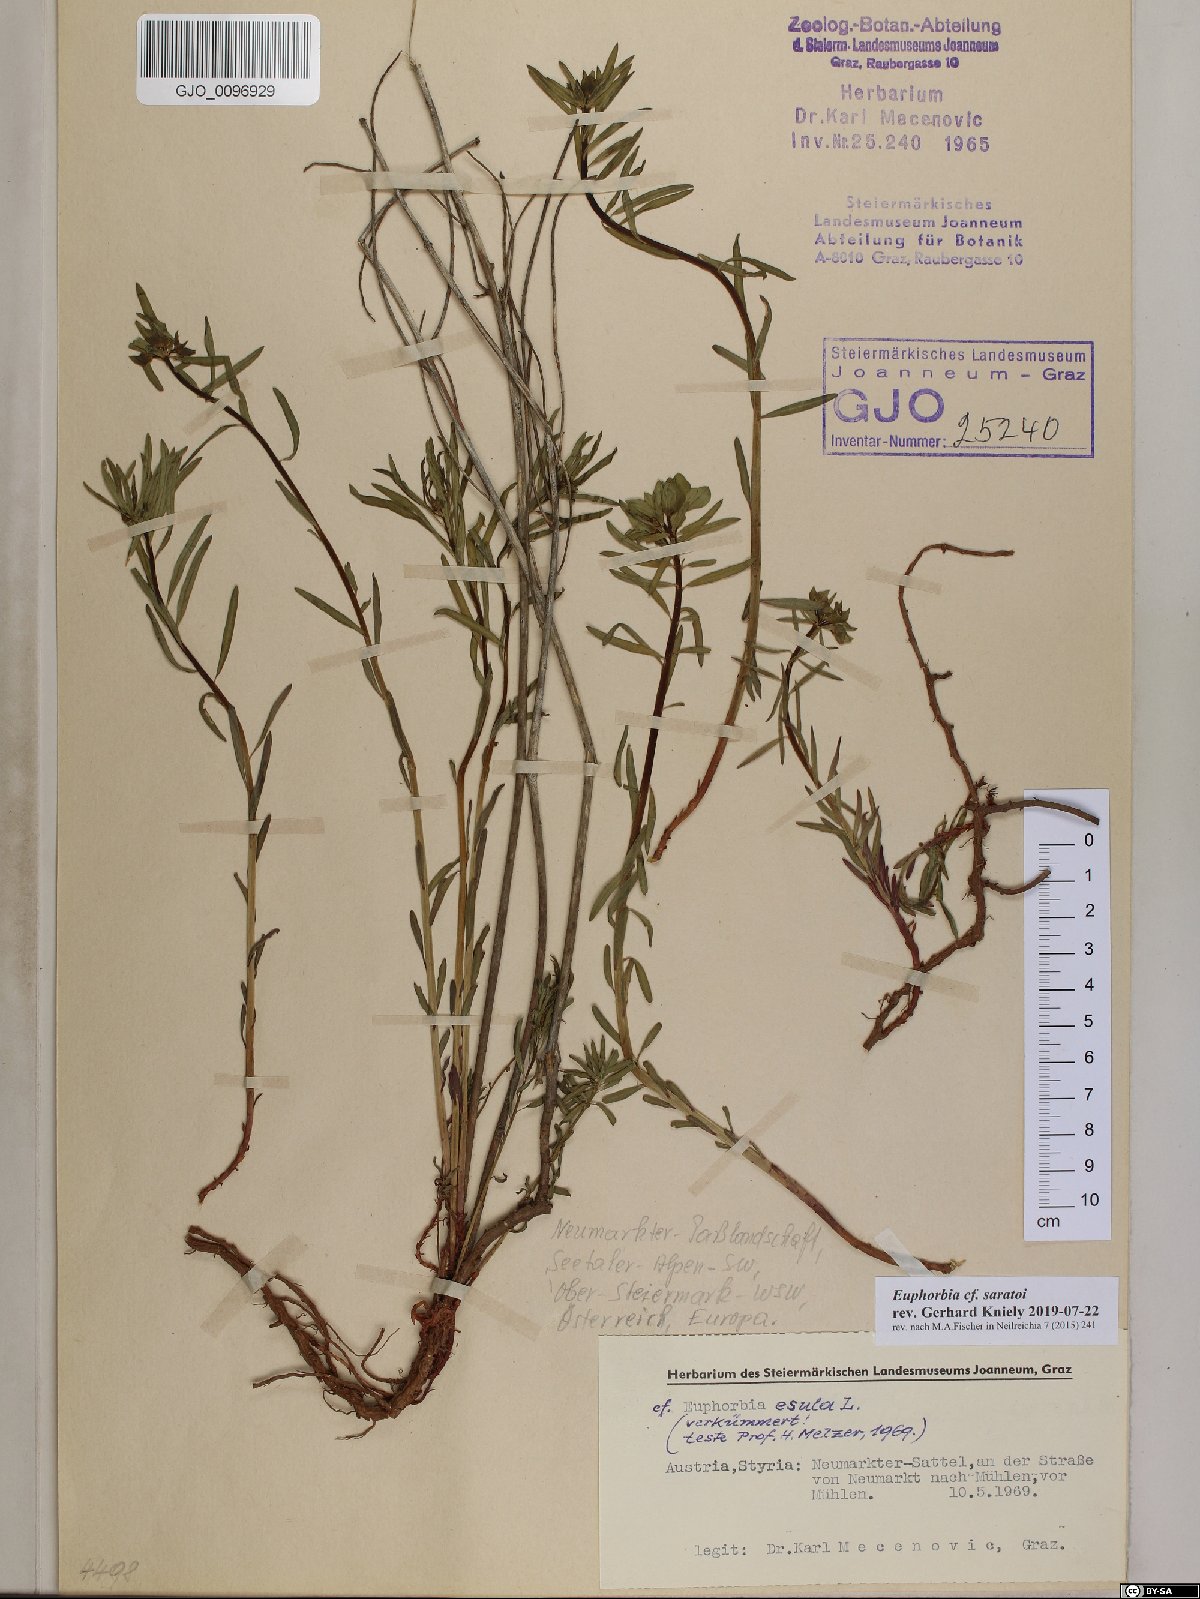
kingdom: Plantae
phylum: Tracheophyta
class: Magnoliopsida
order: Malpighiales
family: Euphorbiaceae
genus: Euphorbia
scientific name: Euphorbia saratoi
